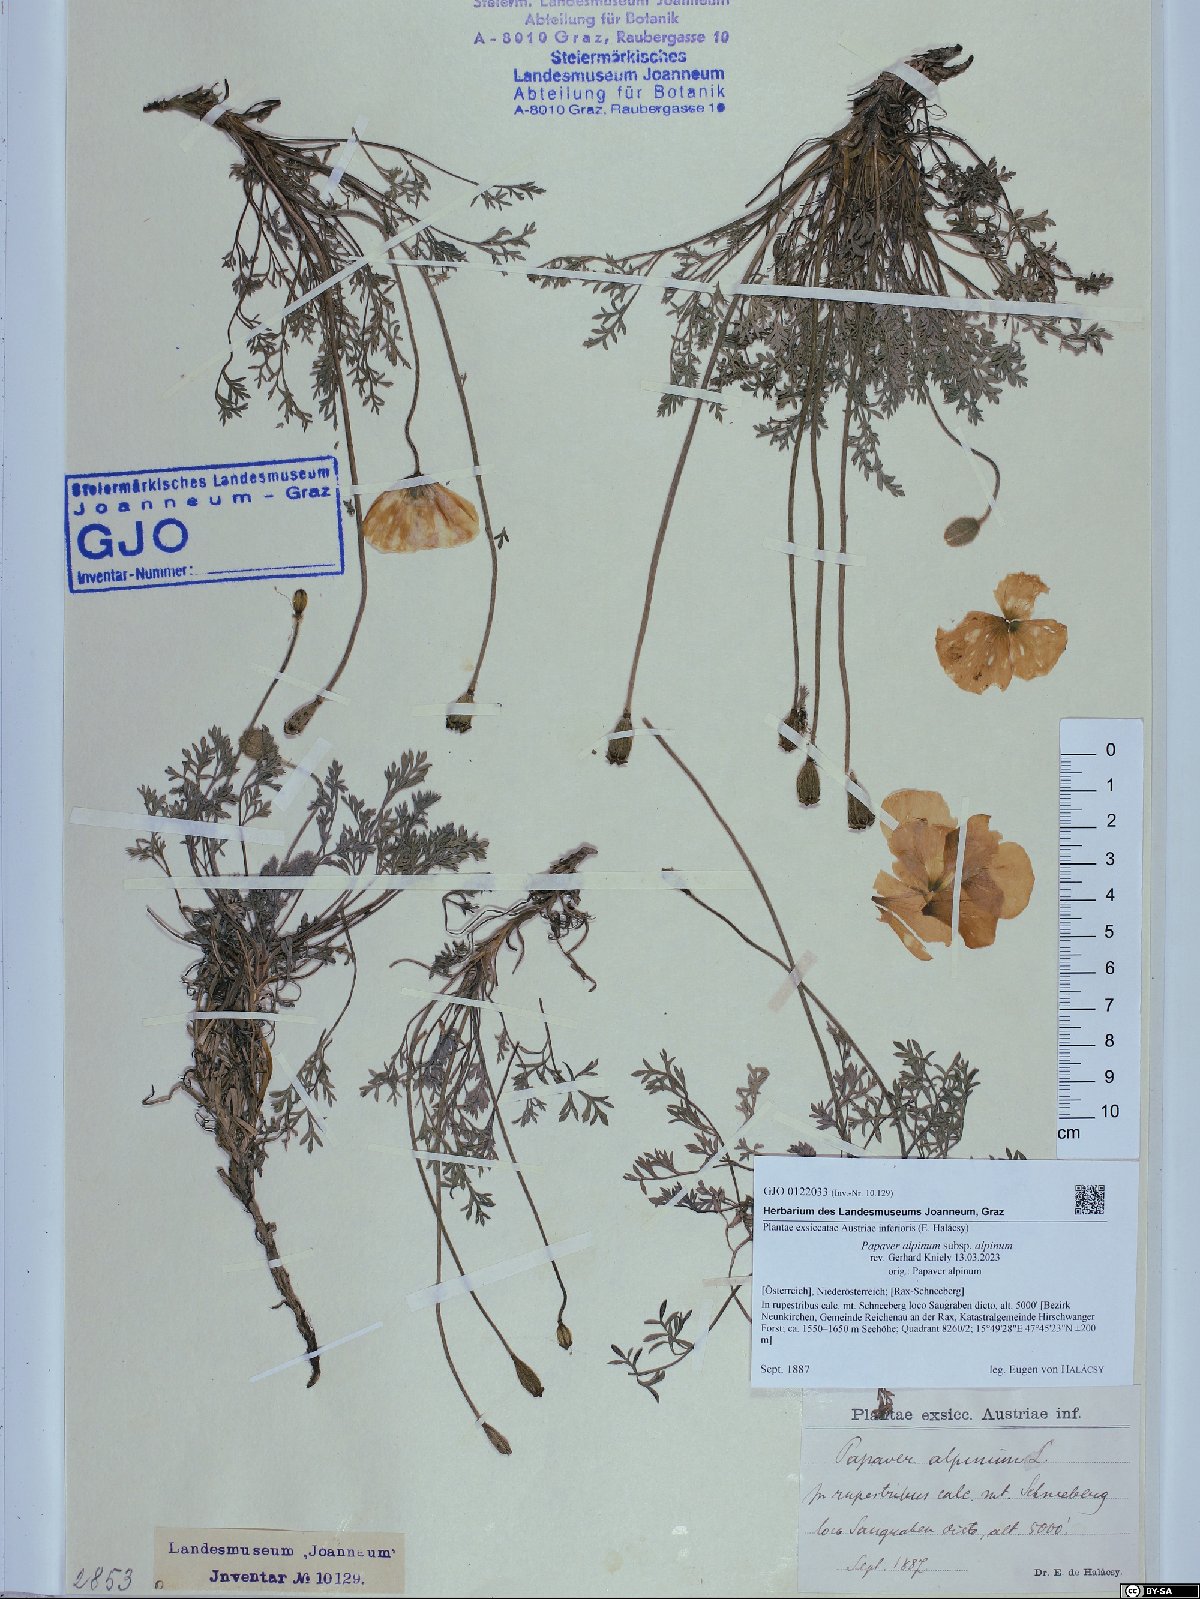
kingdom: Plantae
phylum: Tracheophyta
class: Magnoliopsida
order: Ranunculales
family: Papaveraceae
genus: Papaver
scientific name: Papaver alpinum
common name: Austrian poppy
